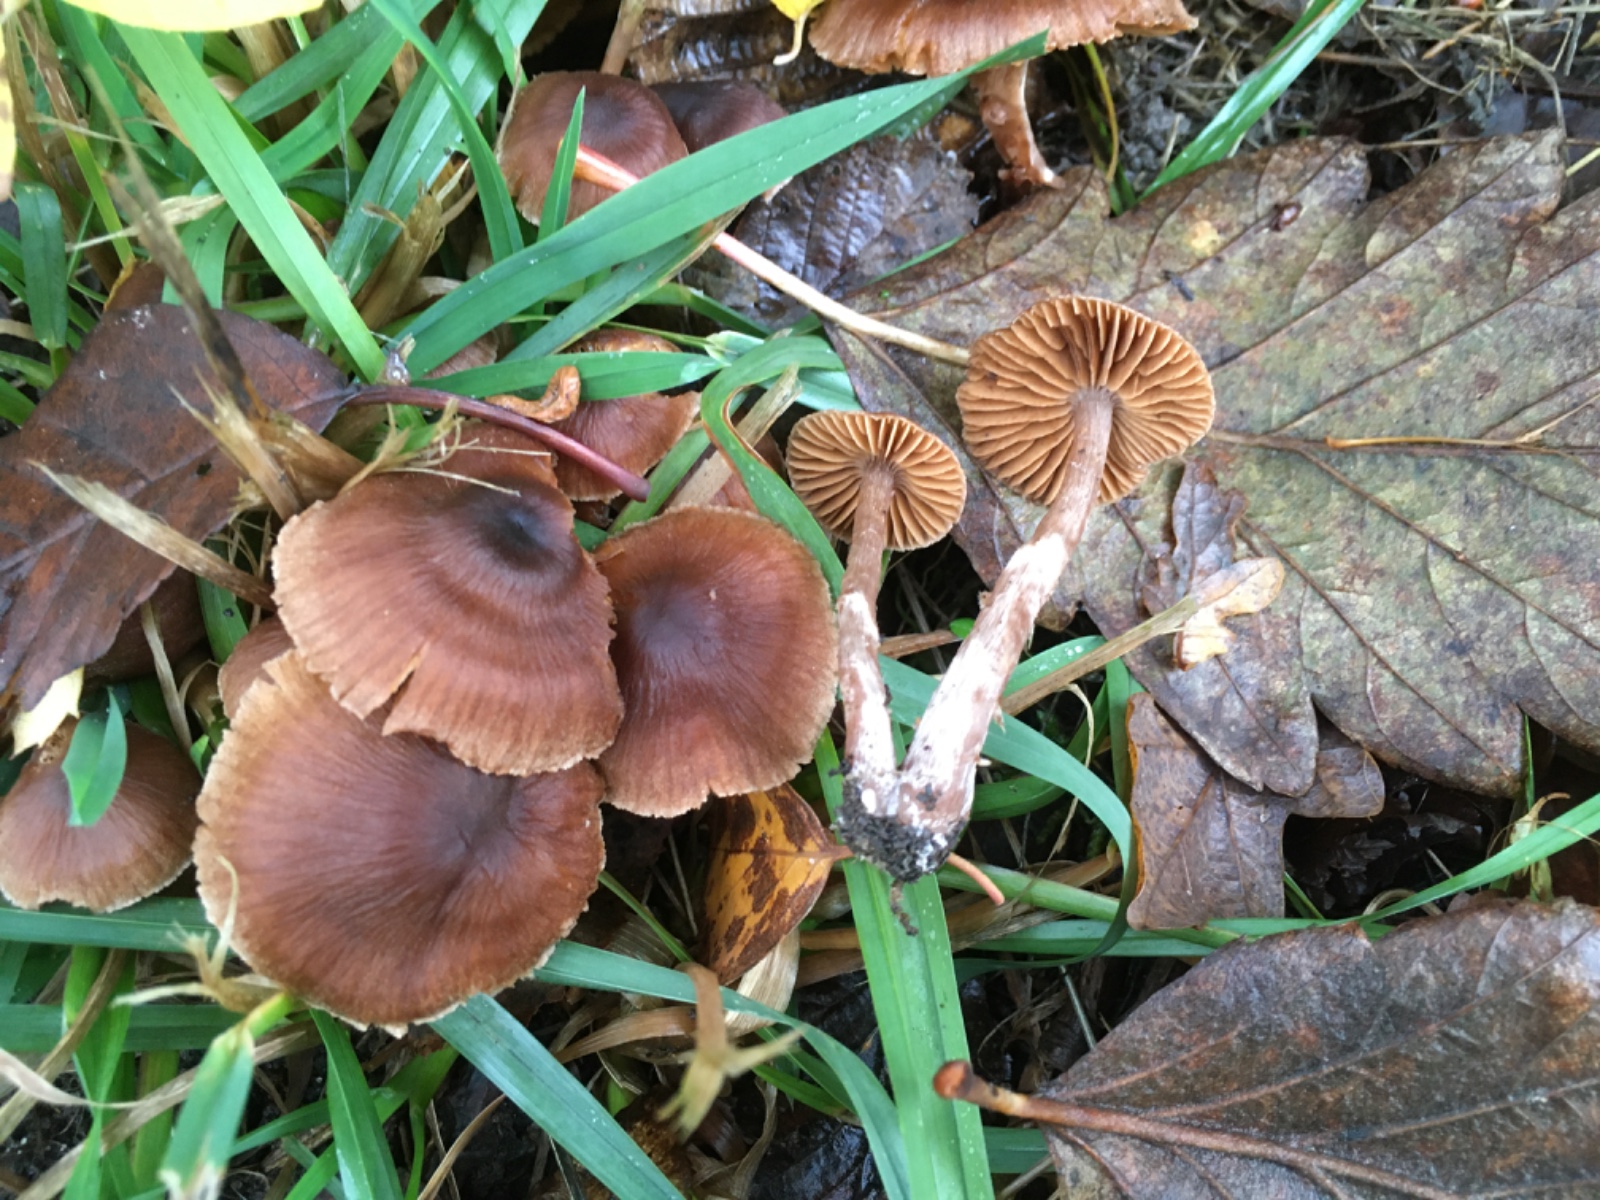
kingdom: Fungi
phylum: Basidiomycota
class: Agaricomycetes
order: Agaricales
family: Cortinariaceae
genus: Cortinarius
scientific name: Cortinarius
